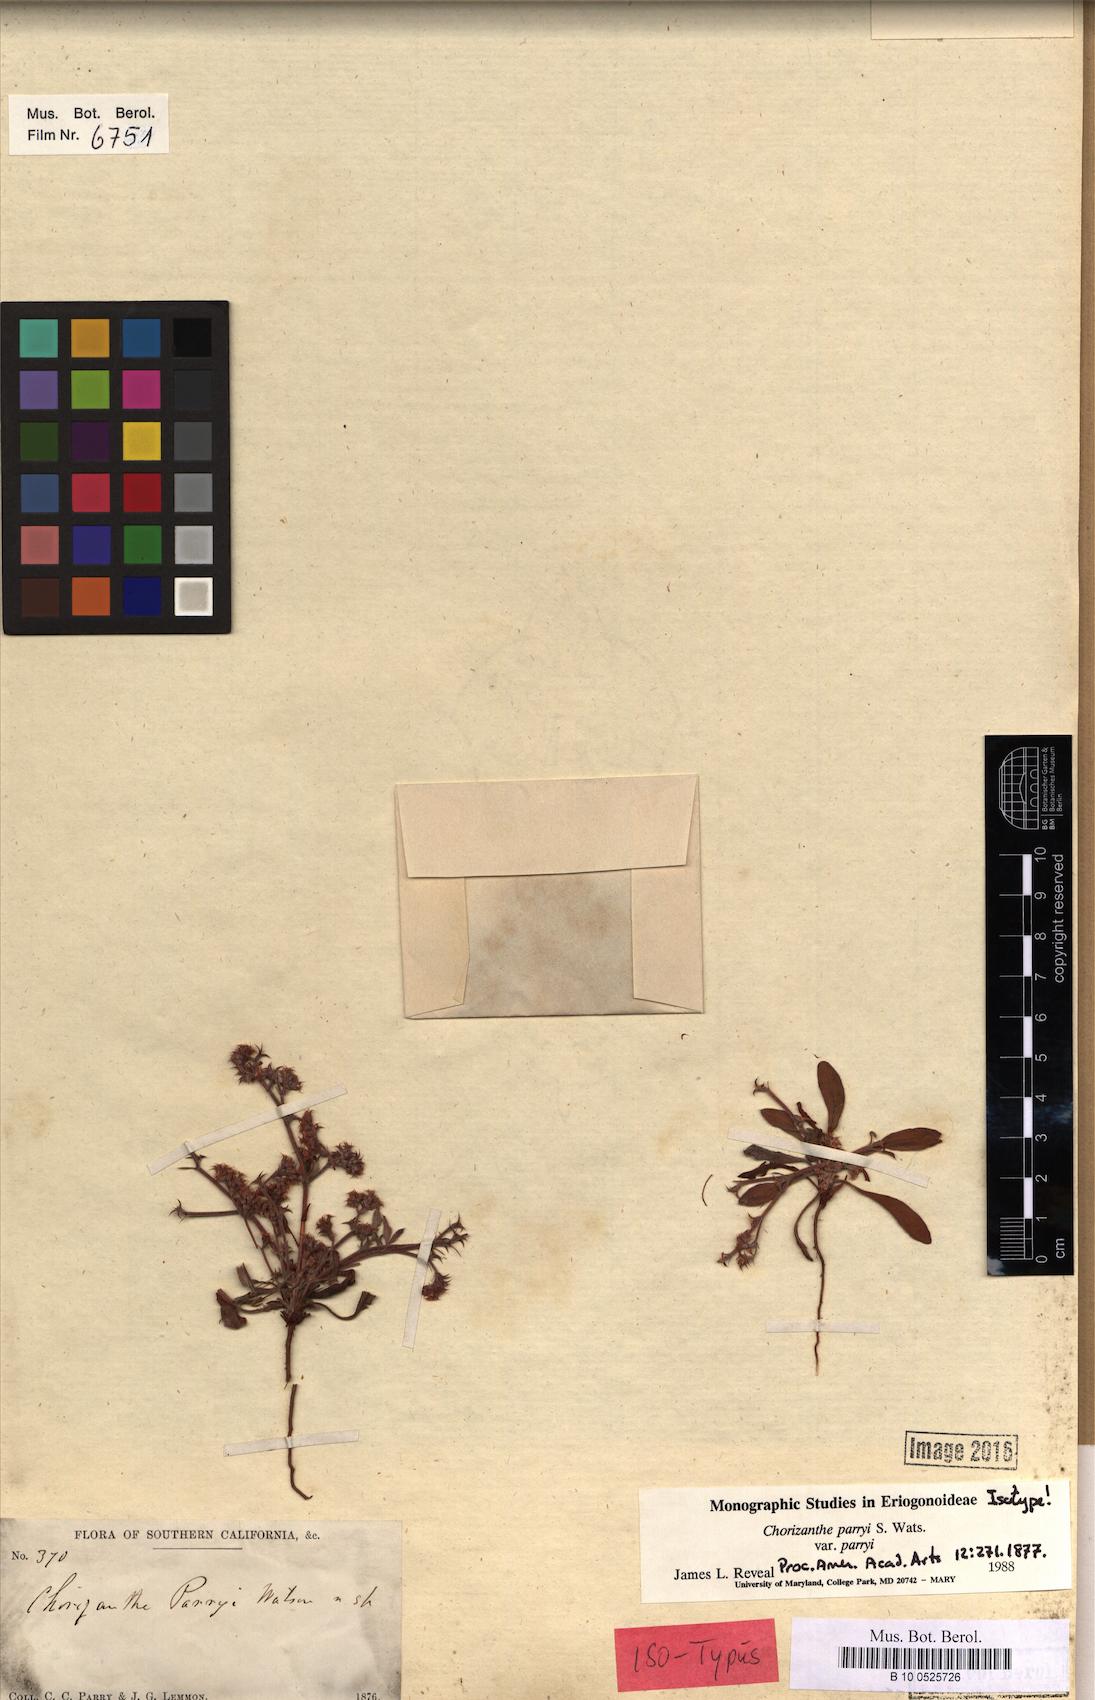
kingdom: Plantae
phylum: Tracheophyta
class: Magnoliopsida
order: Caryophyllales
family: Polygonaceae
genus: Chorizanthe
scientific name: Chorizanthe parryi
